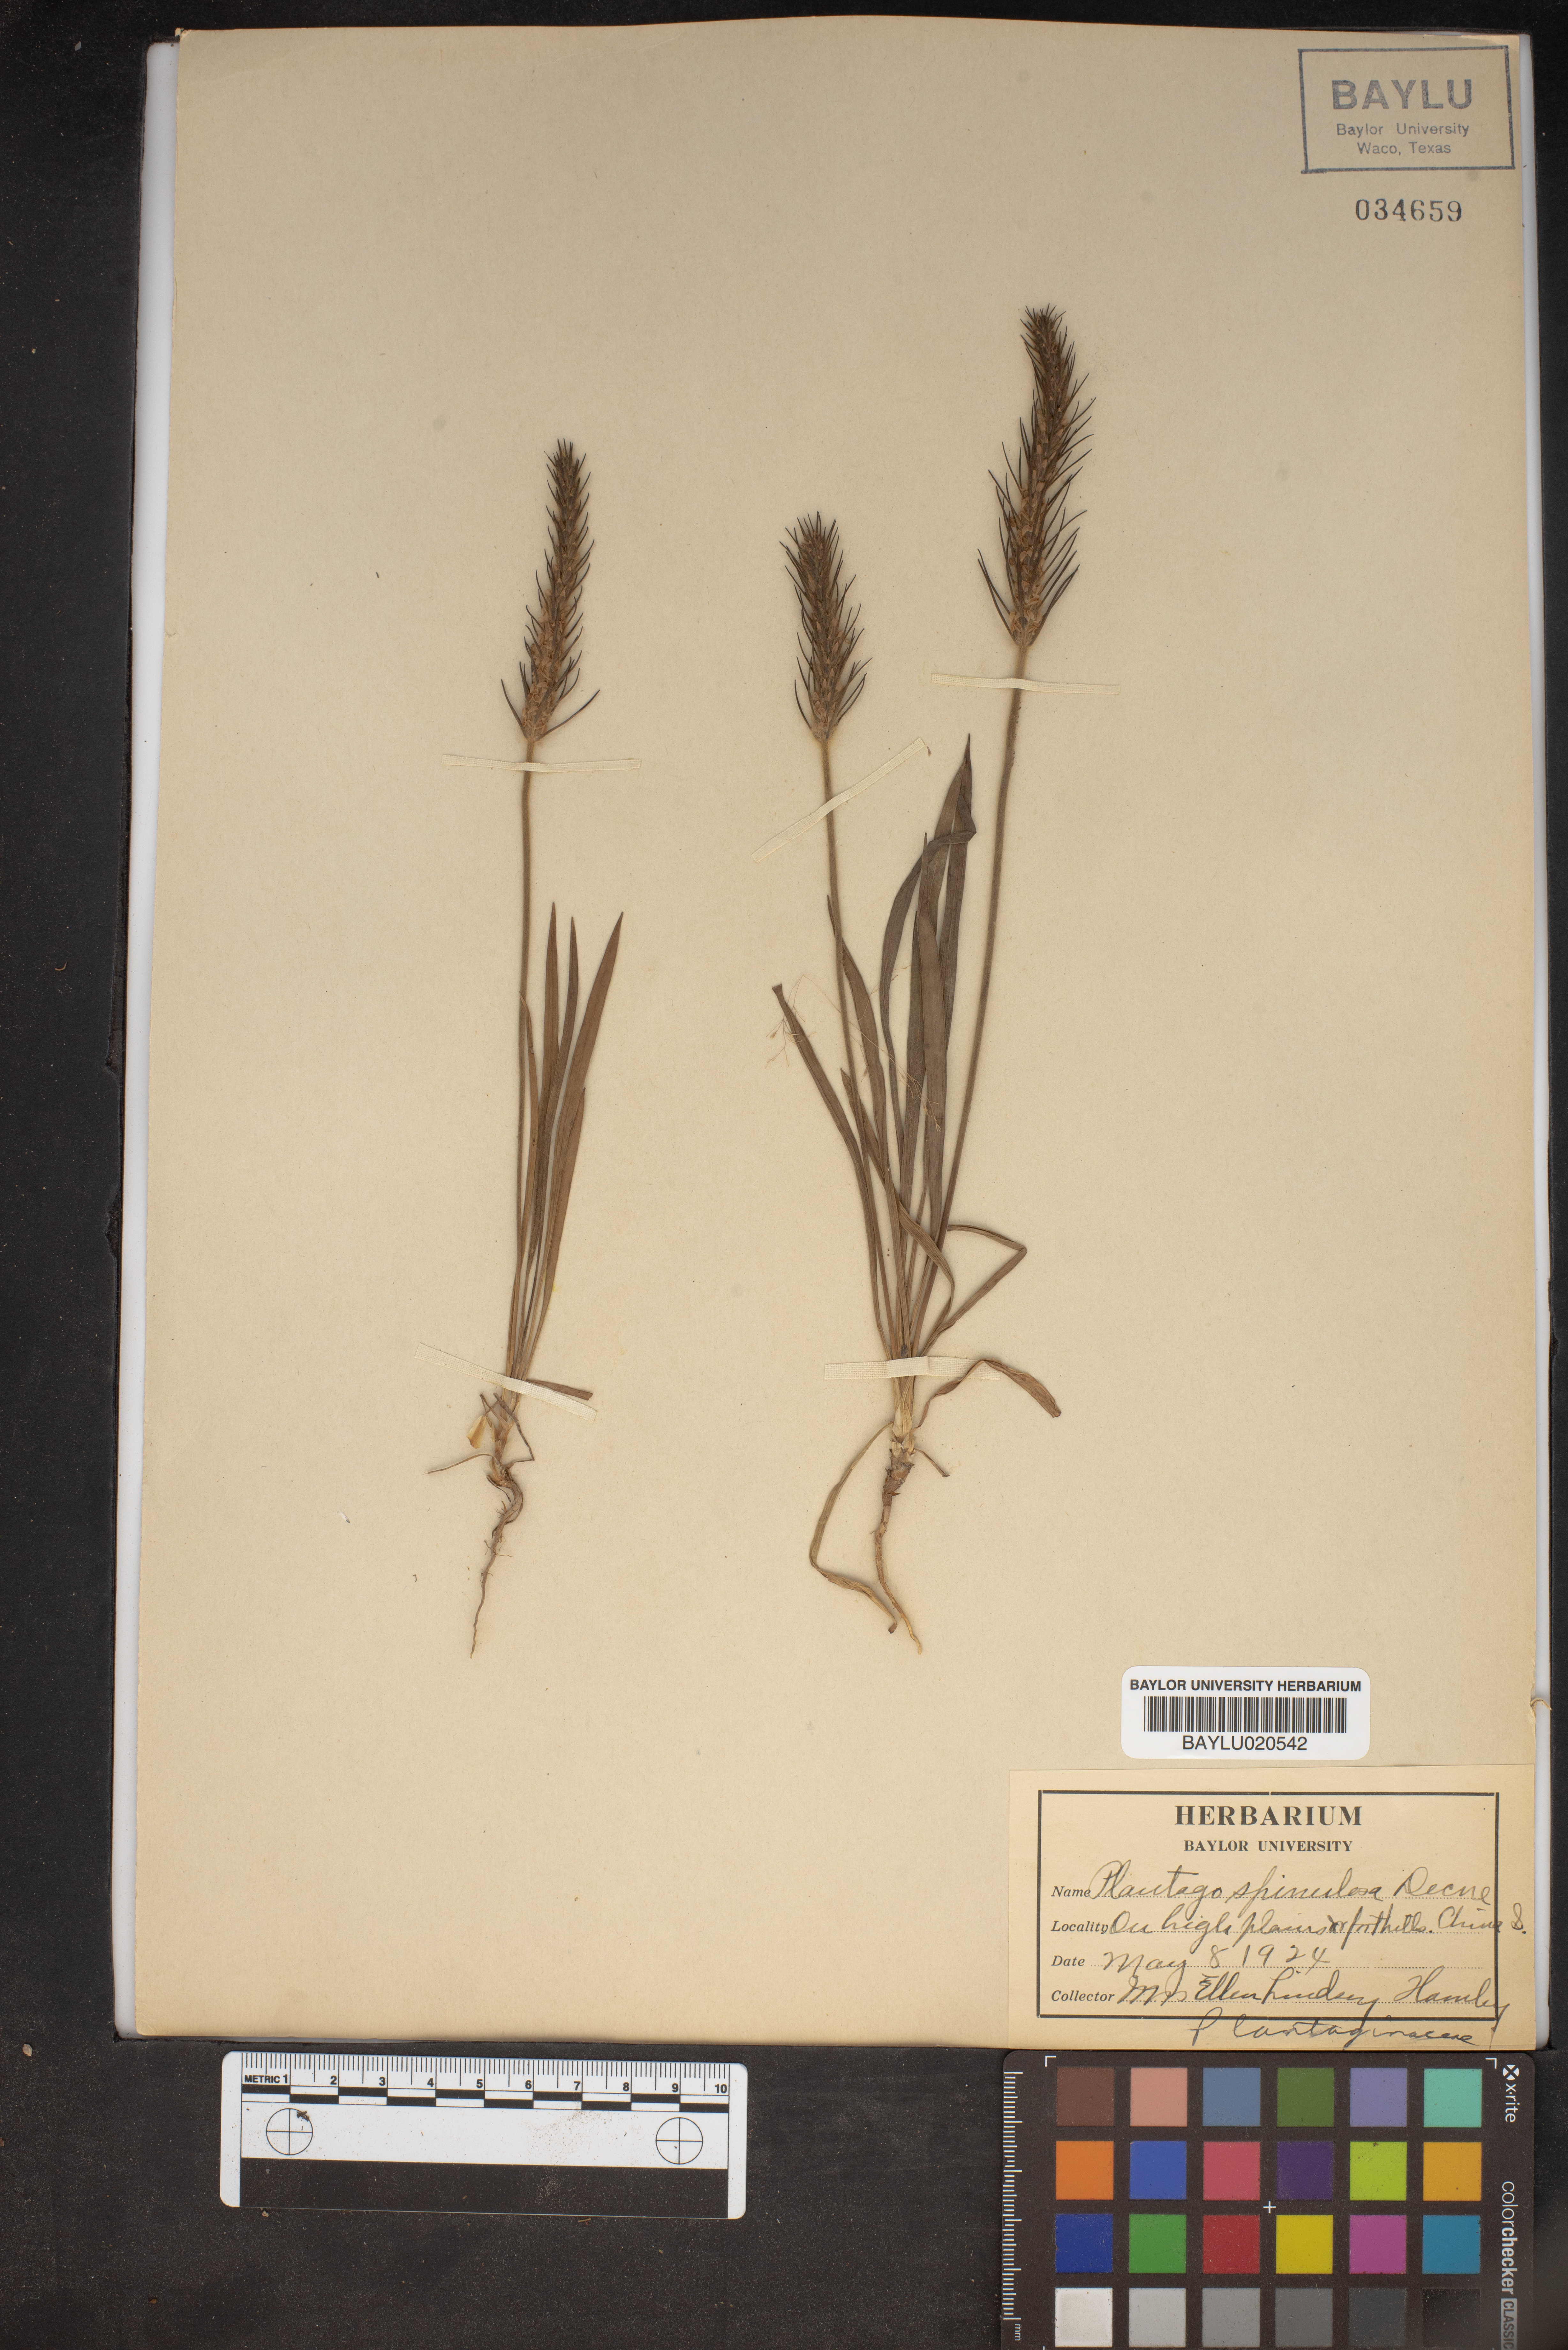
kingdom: Plantae
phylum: Tracheophyta
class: Magnoliopsida
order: Lamiales
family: Plantaginaceae
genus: Plantago
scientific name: Plantago patagonica
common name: Patagonia indian-wheat
